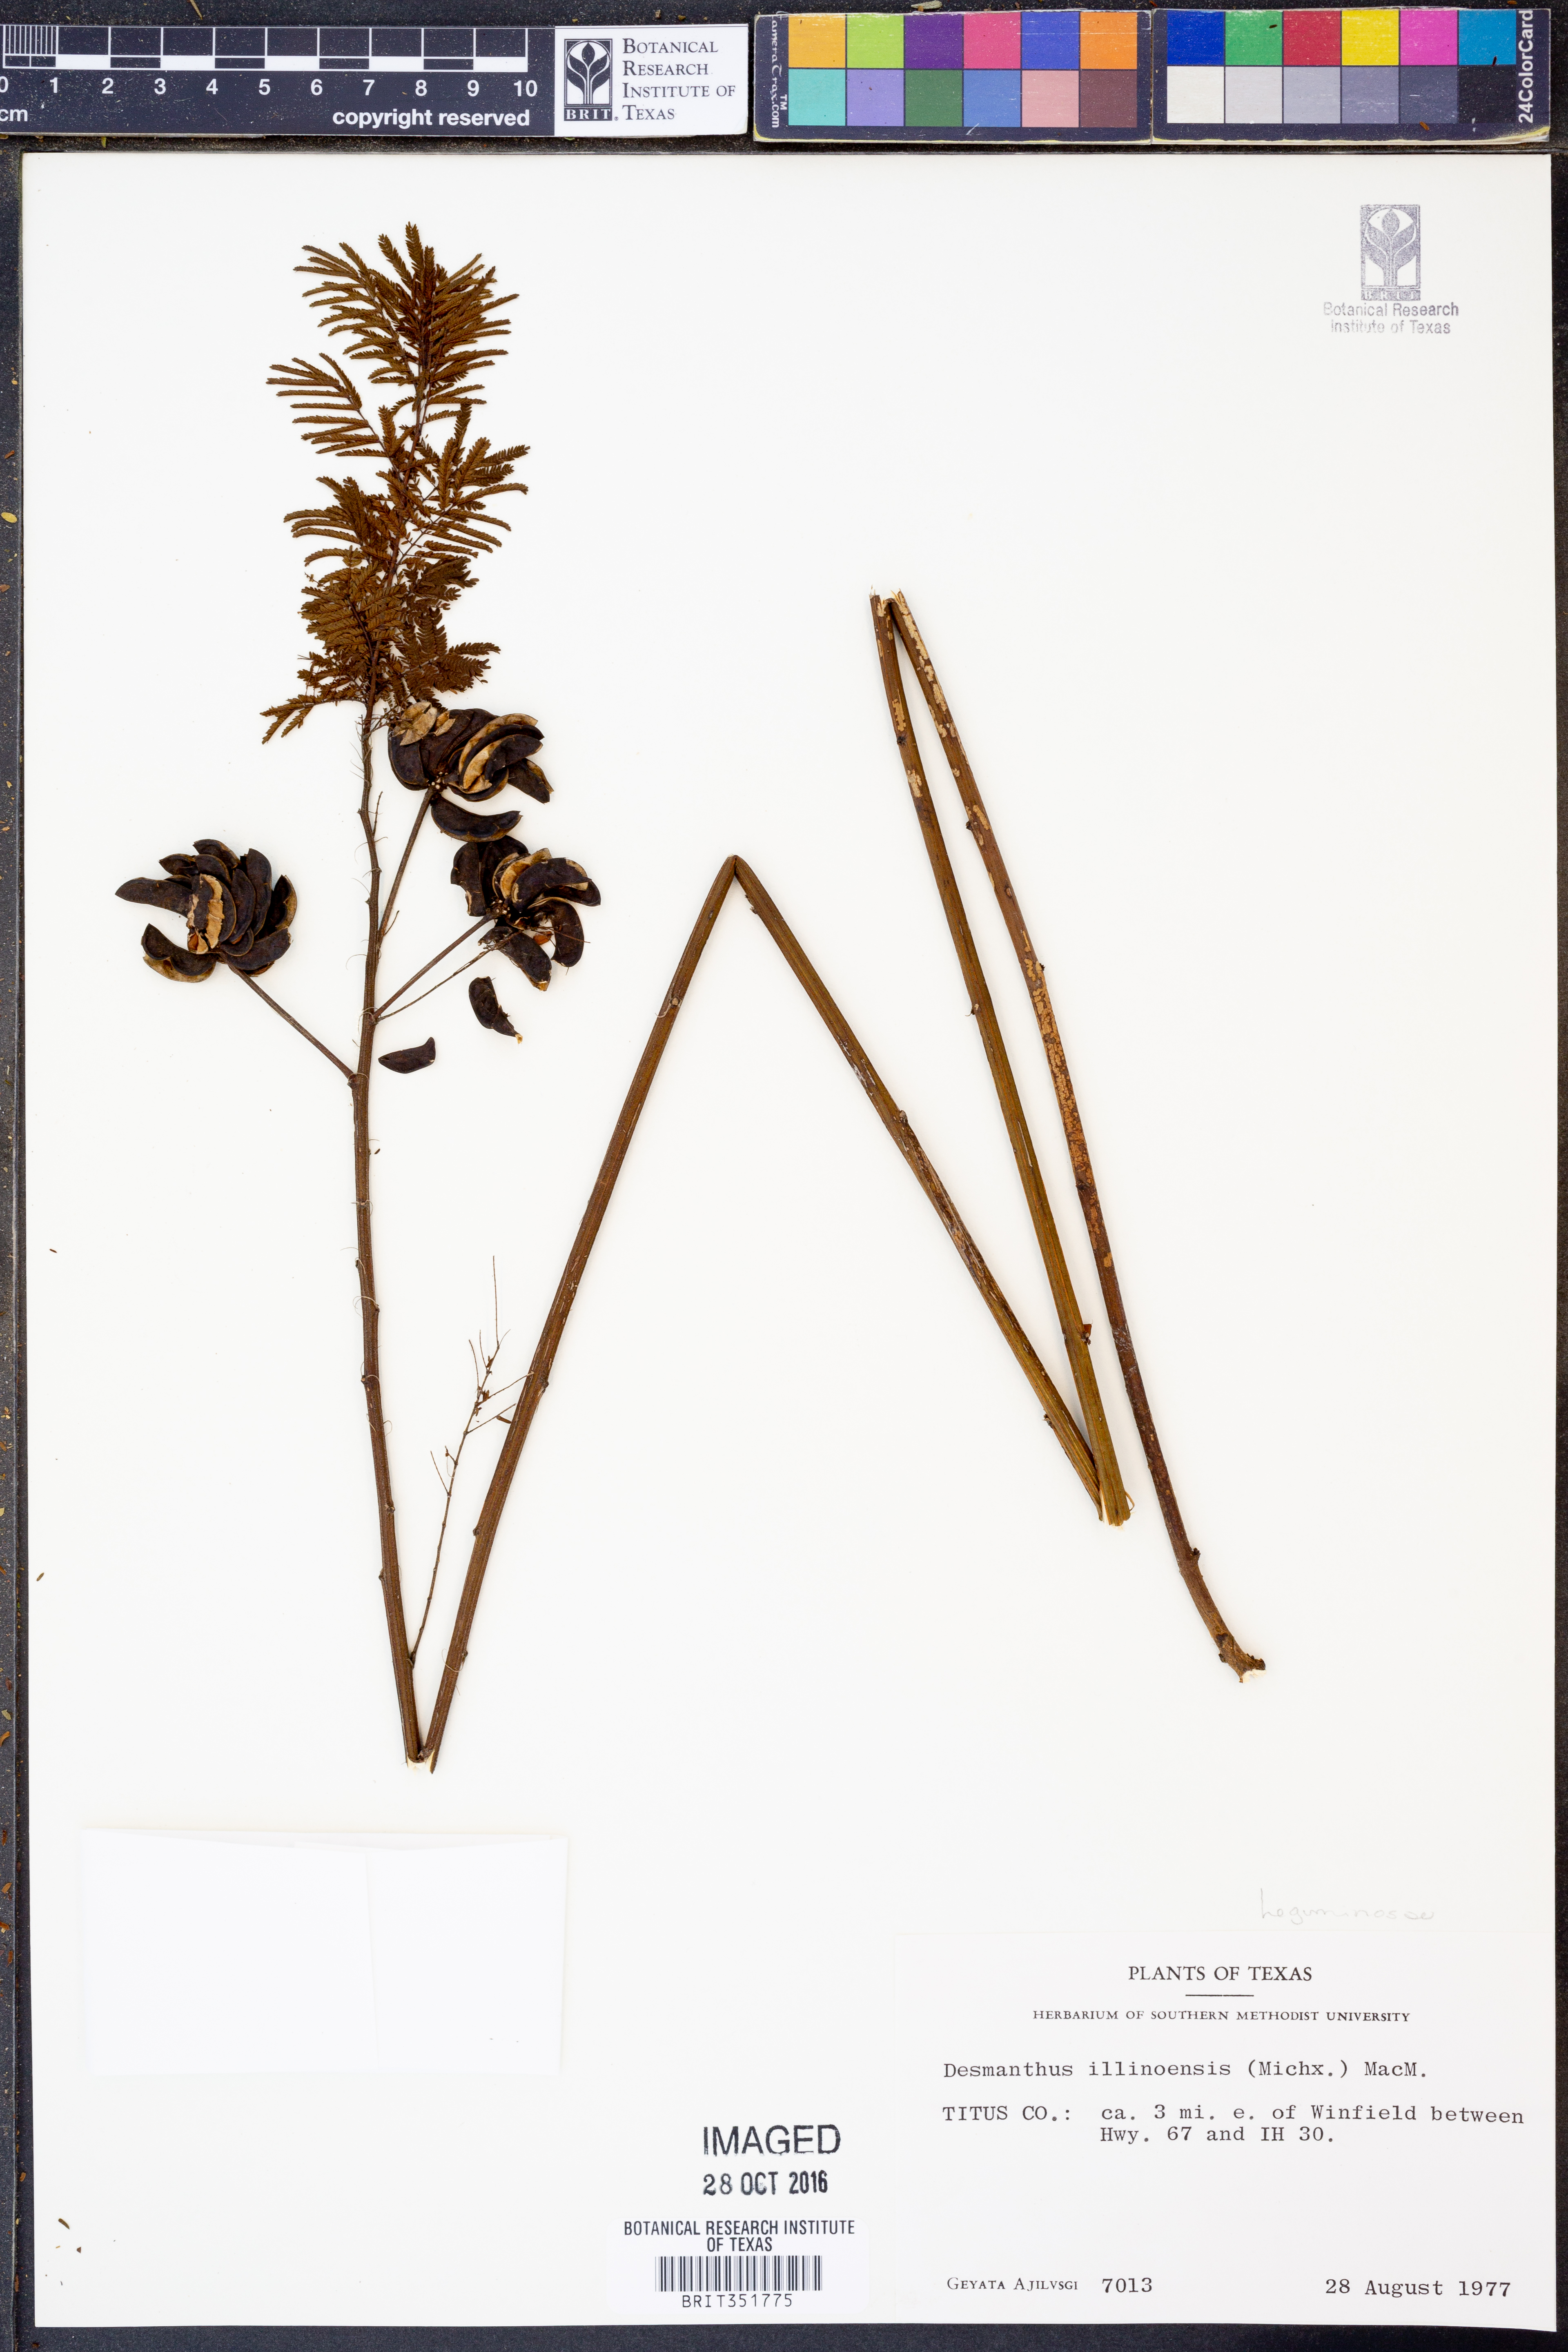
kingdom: Plantae
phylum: Tracheophyta
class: Magnoliopsida
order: Fabales
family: Fabaceae
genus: Desmanthus
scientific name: Desmanthus illinoensis
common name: Illinois bundle-flower
